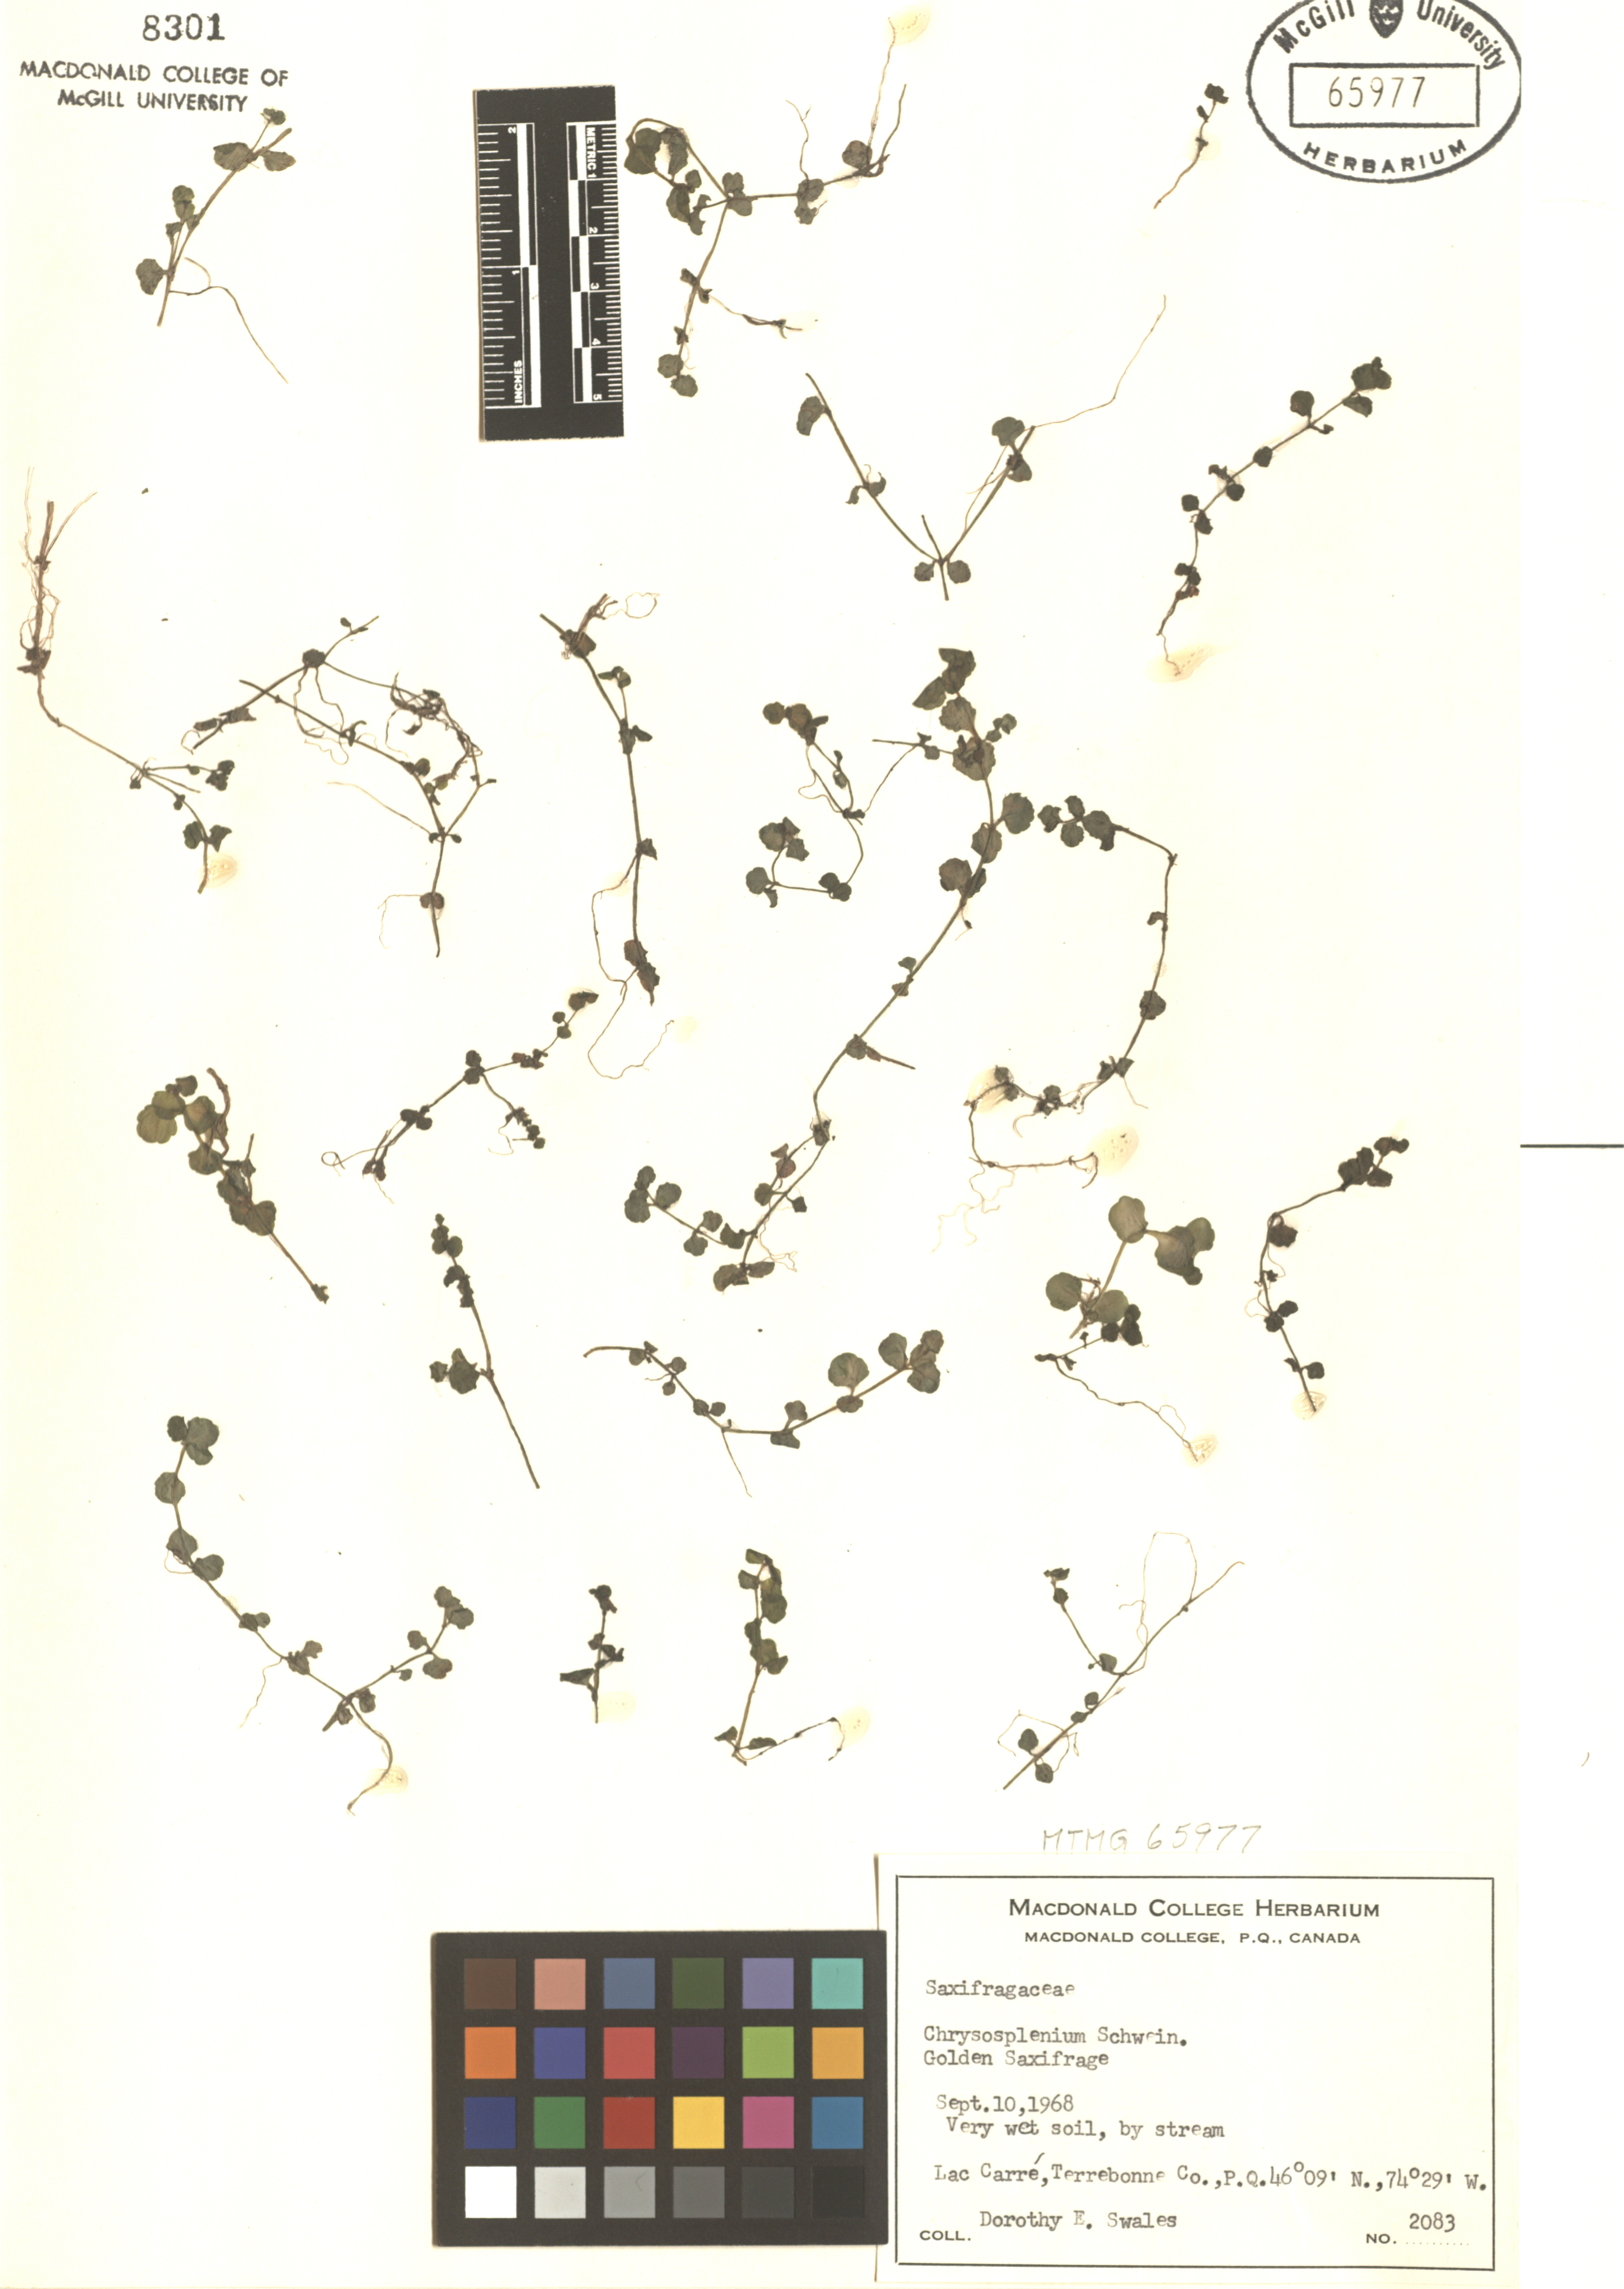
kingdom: Plantae
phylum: Tracheophyta
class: Magnoliopsida
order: Saxifragales
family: Saxifragaceae
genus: Chrysosplenium
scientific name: Chrysosplenium
